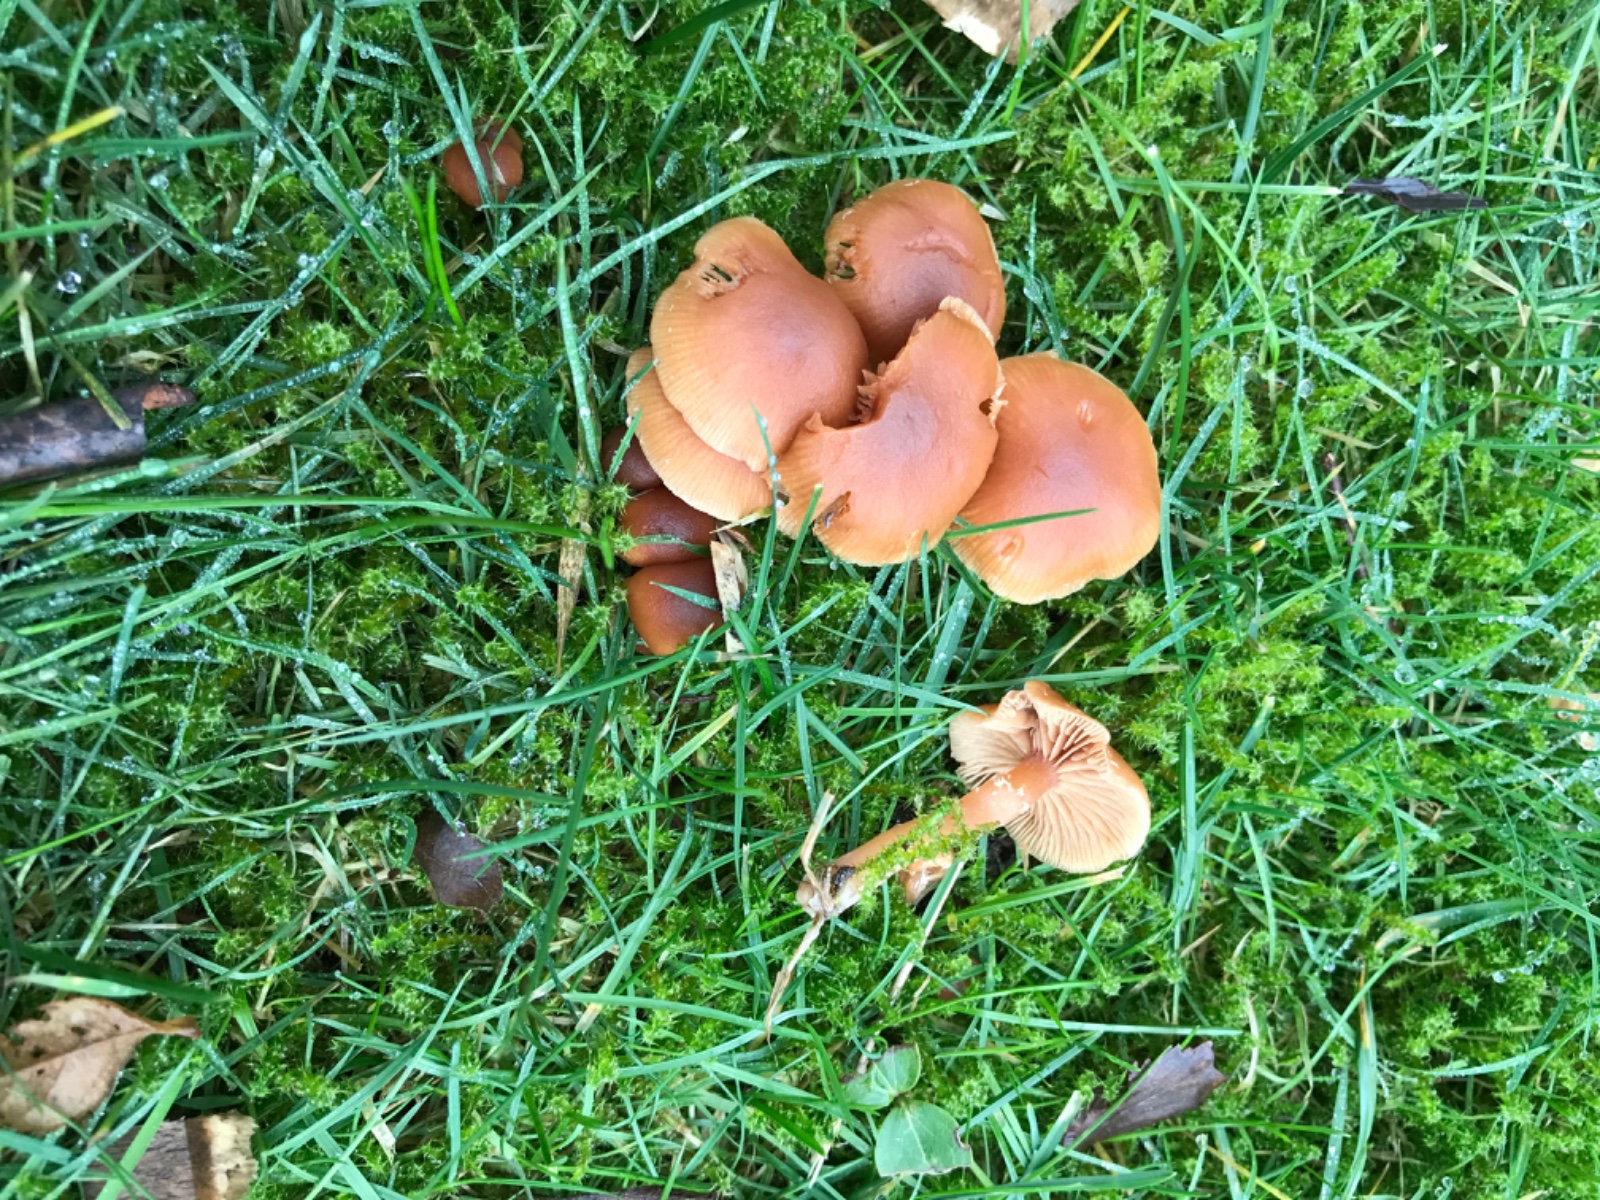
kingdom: Fungi
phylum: Basidiomycota
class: Agaricomycetes
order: Agaricales
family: Tubariaceae
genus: Tubaria
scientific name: Tubaria furfuracea
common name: kliddet fnughat
